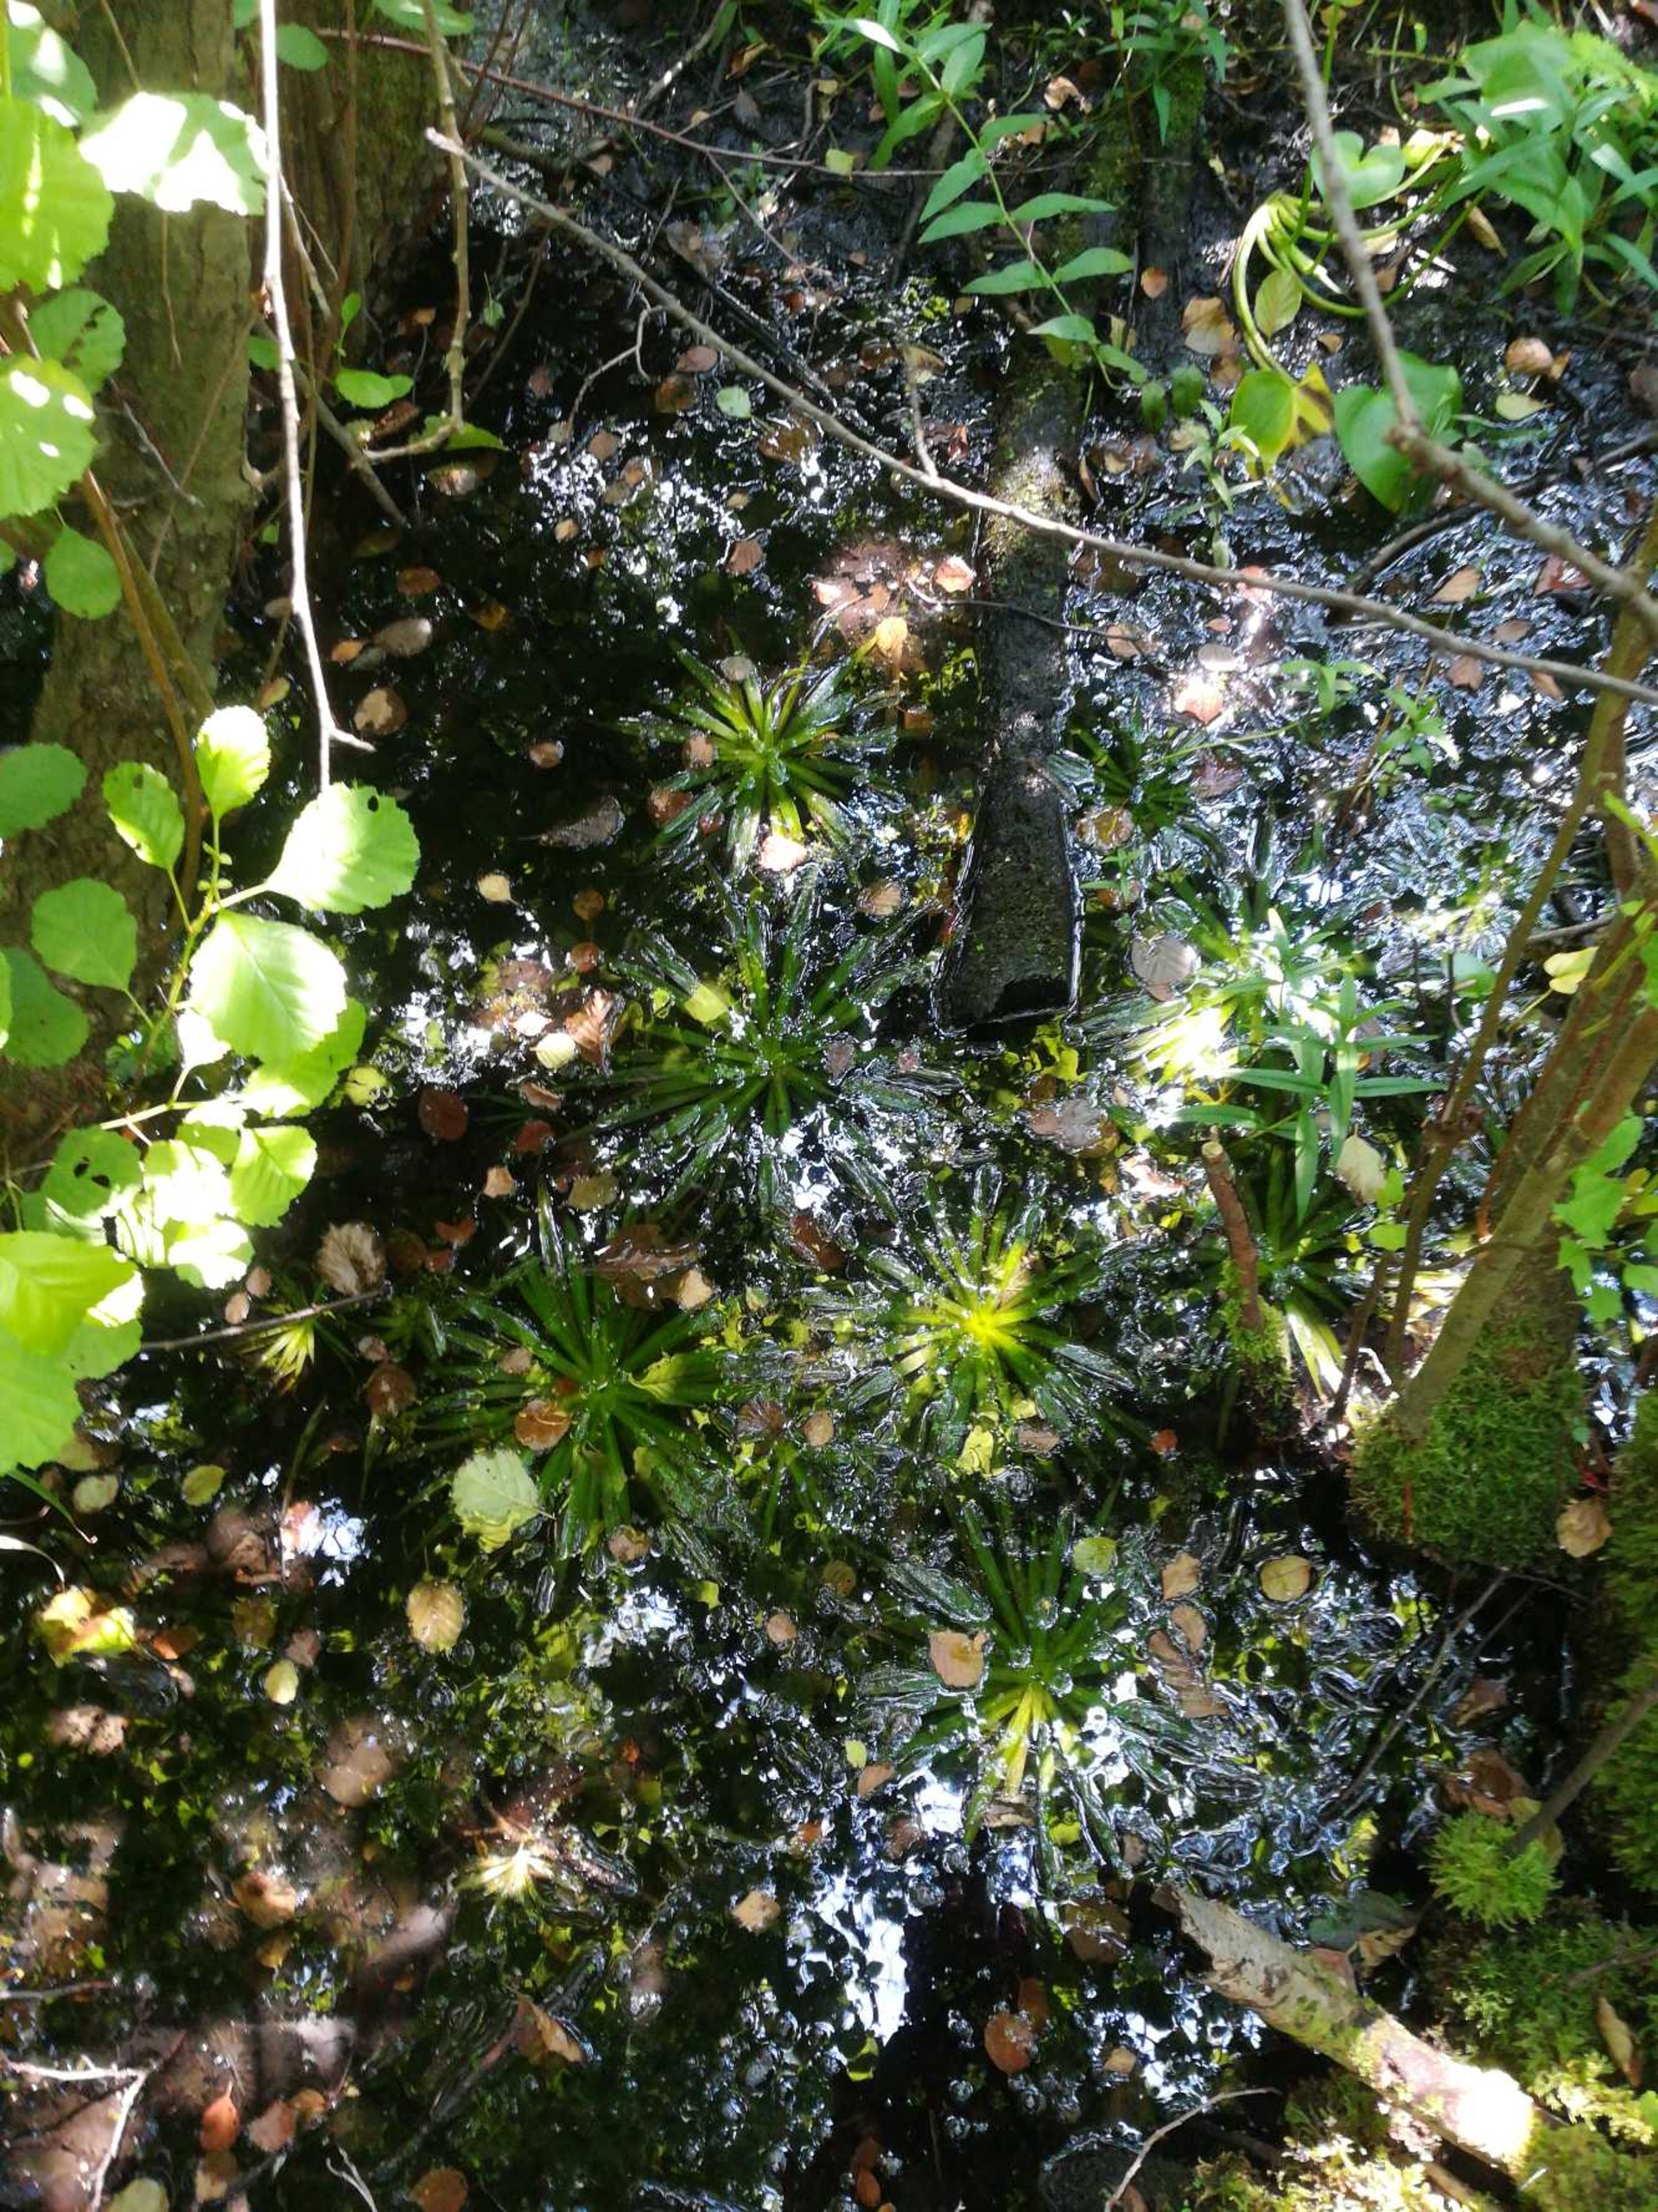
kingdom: Plantae
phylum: Tracheophyta
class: Liliopsida
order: Alismatales
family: Hydrocharitaceae
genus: Stratiotes
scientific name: Stratiotes aloides
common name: Krebseklo
